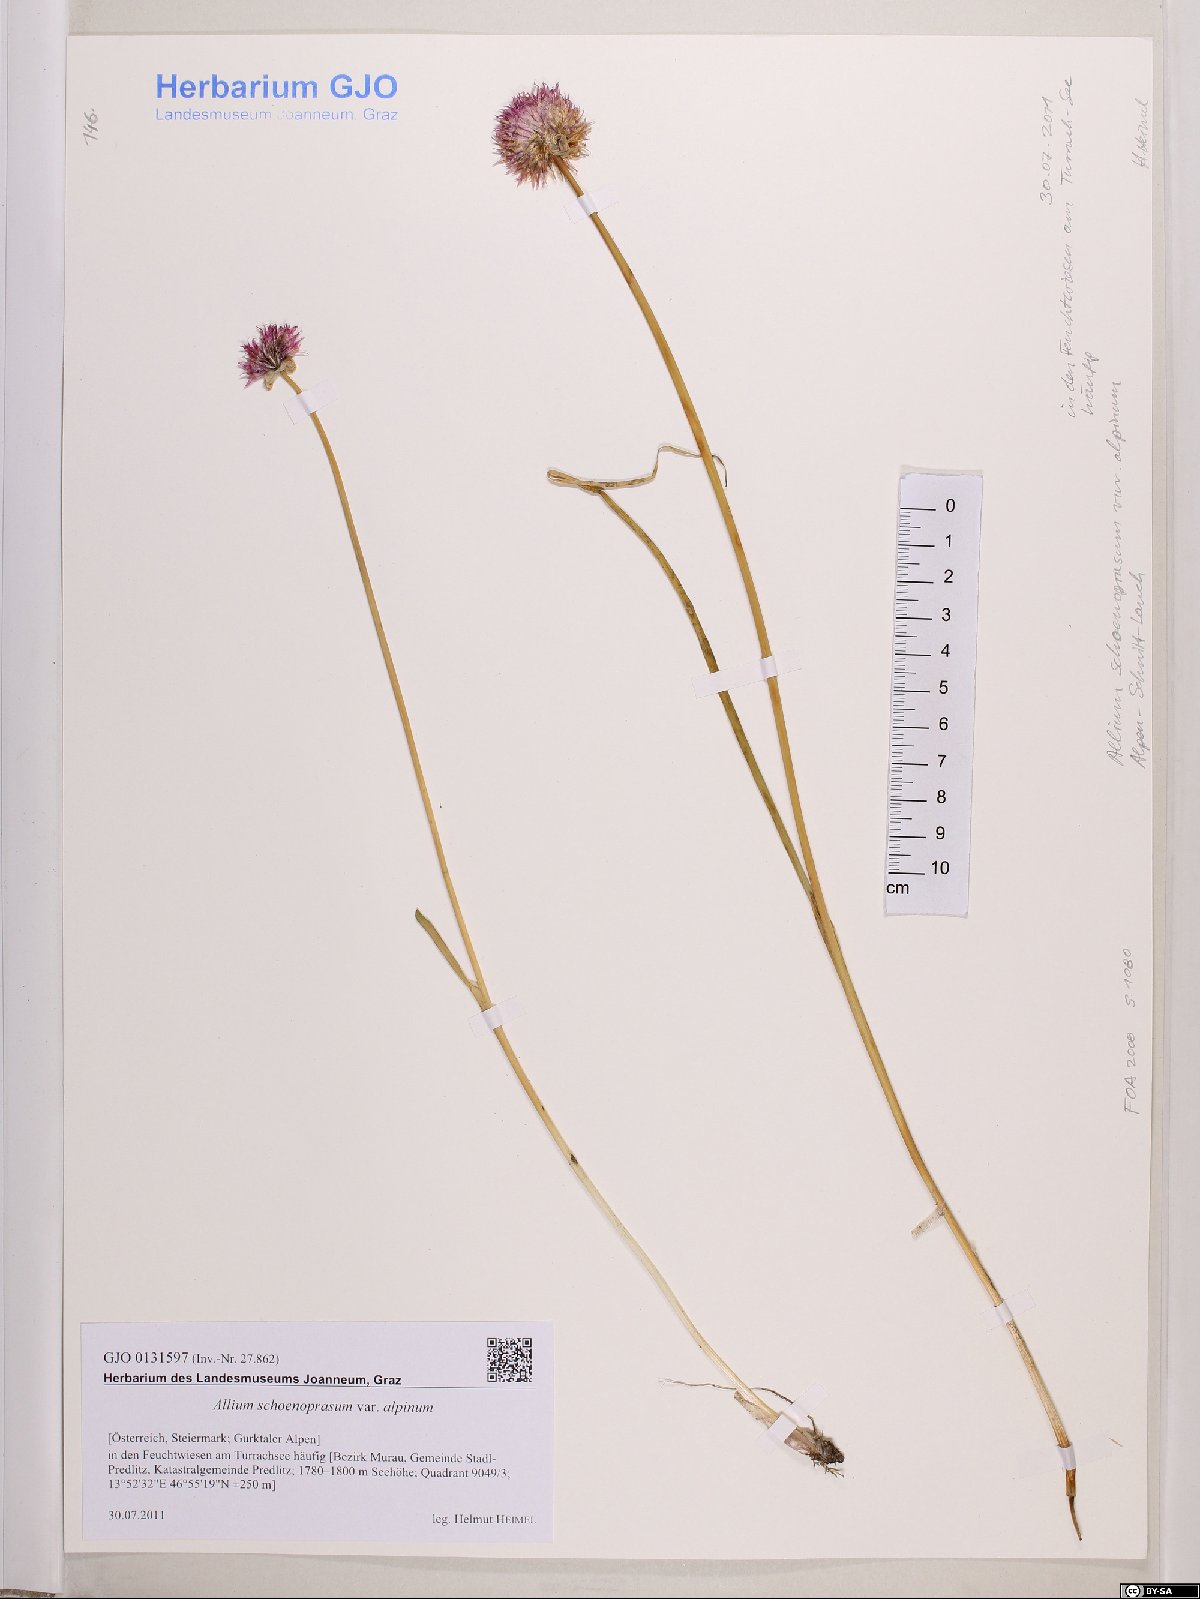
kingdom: Plantae
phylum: Tracheophyta
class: Liliopsida
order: Asparagales
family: Amaryllidaceae
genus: Allium
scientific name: Allium schoenoprasum
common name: Chives
